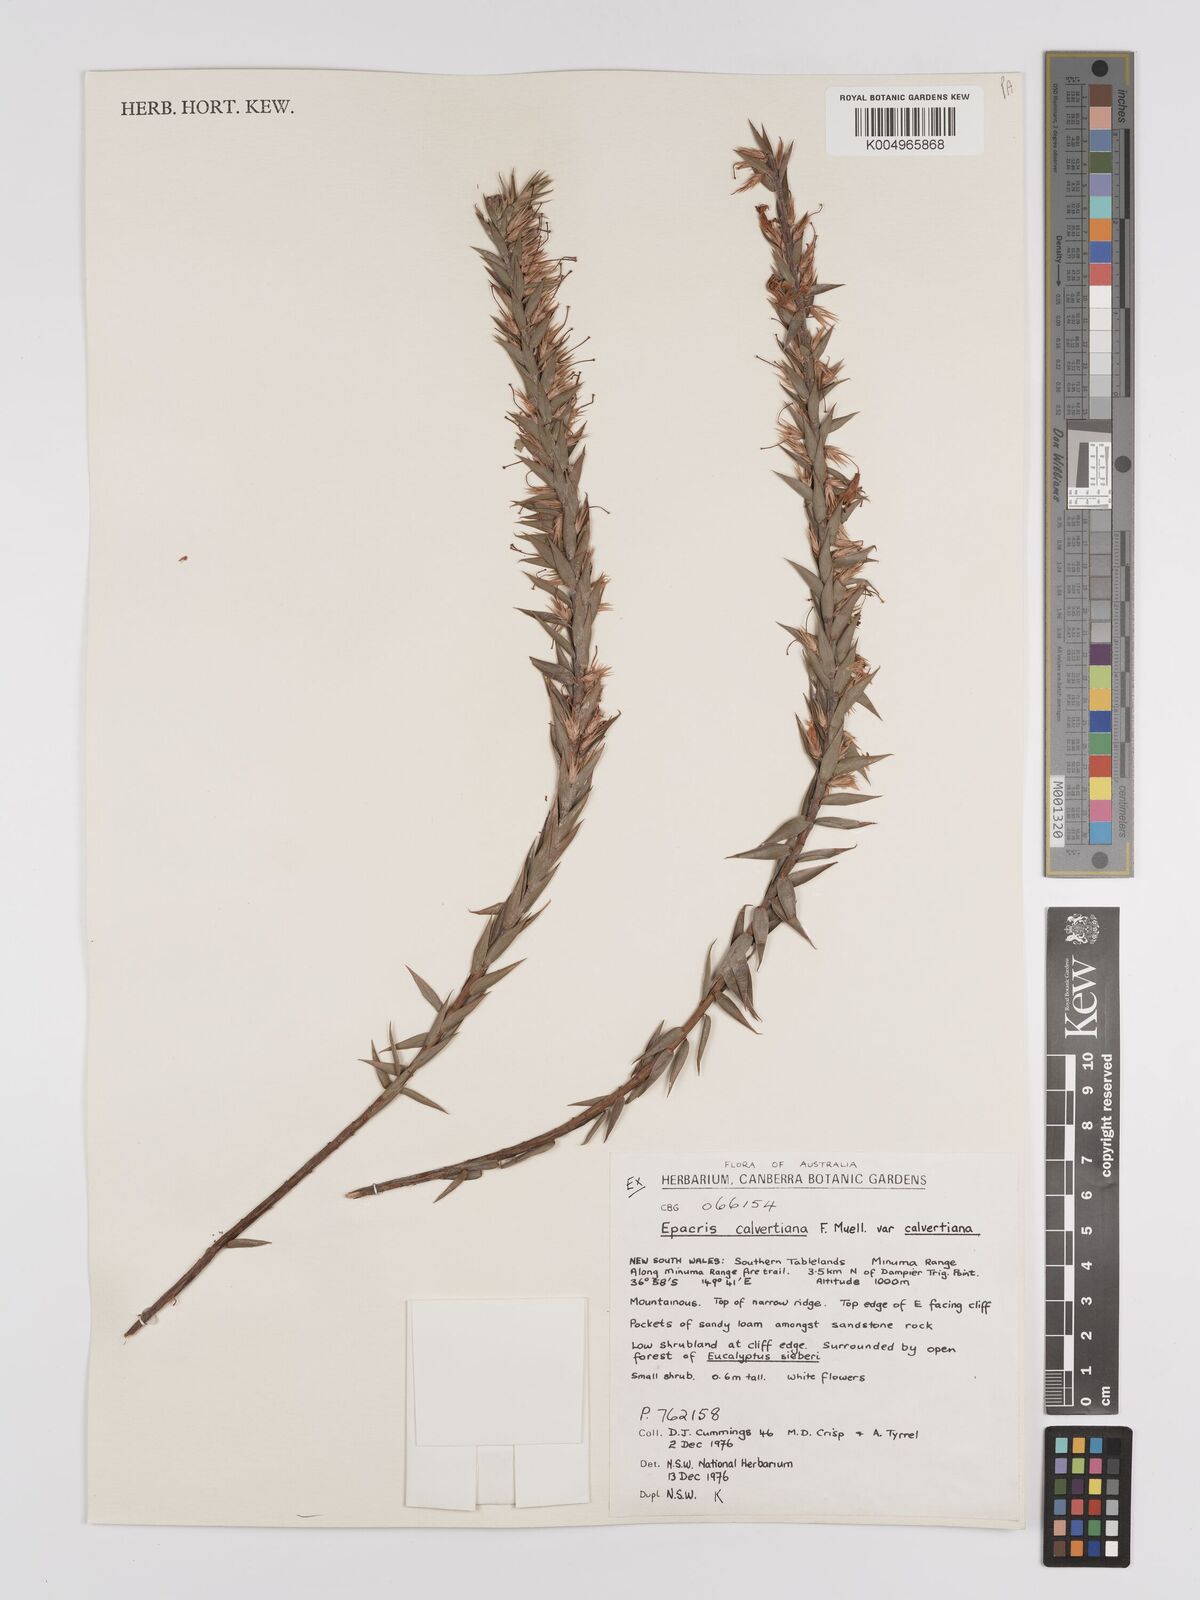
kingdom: Plantae
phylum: Tracheophyta
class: Magnoliopsida
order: Ericales
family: Ericaceae
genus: Epacris
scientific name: Epacris calvertiana
